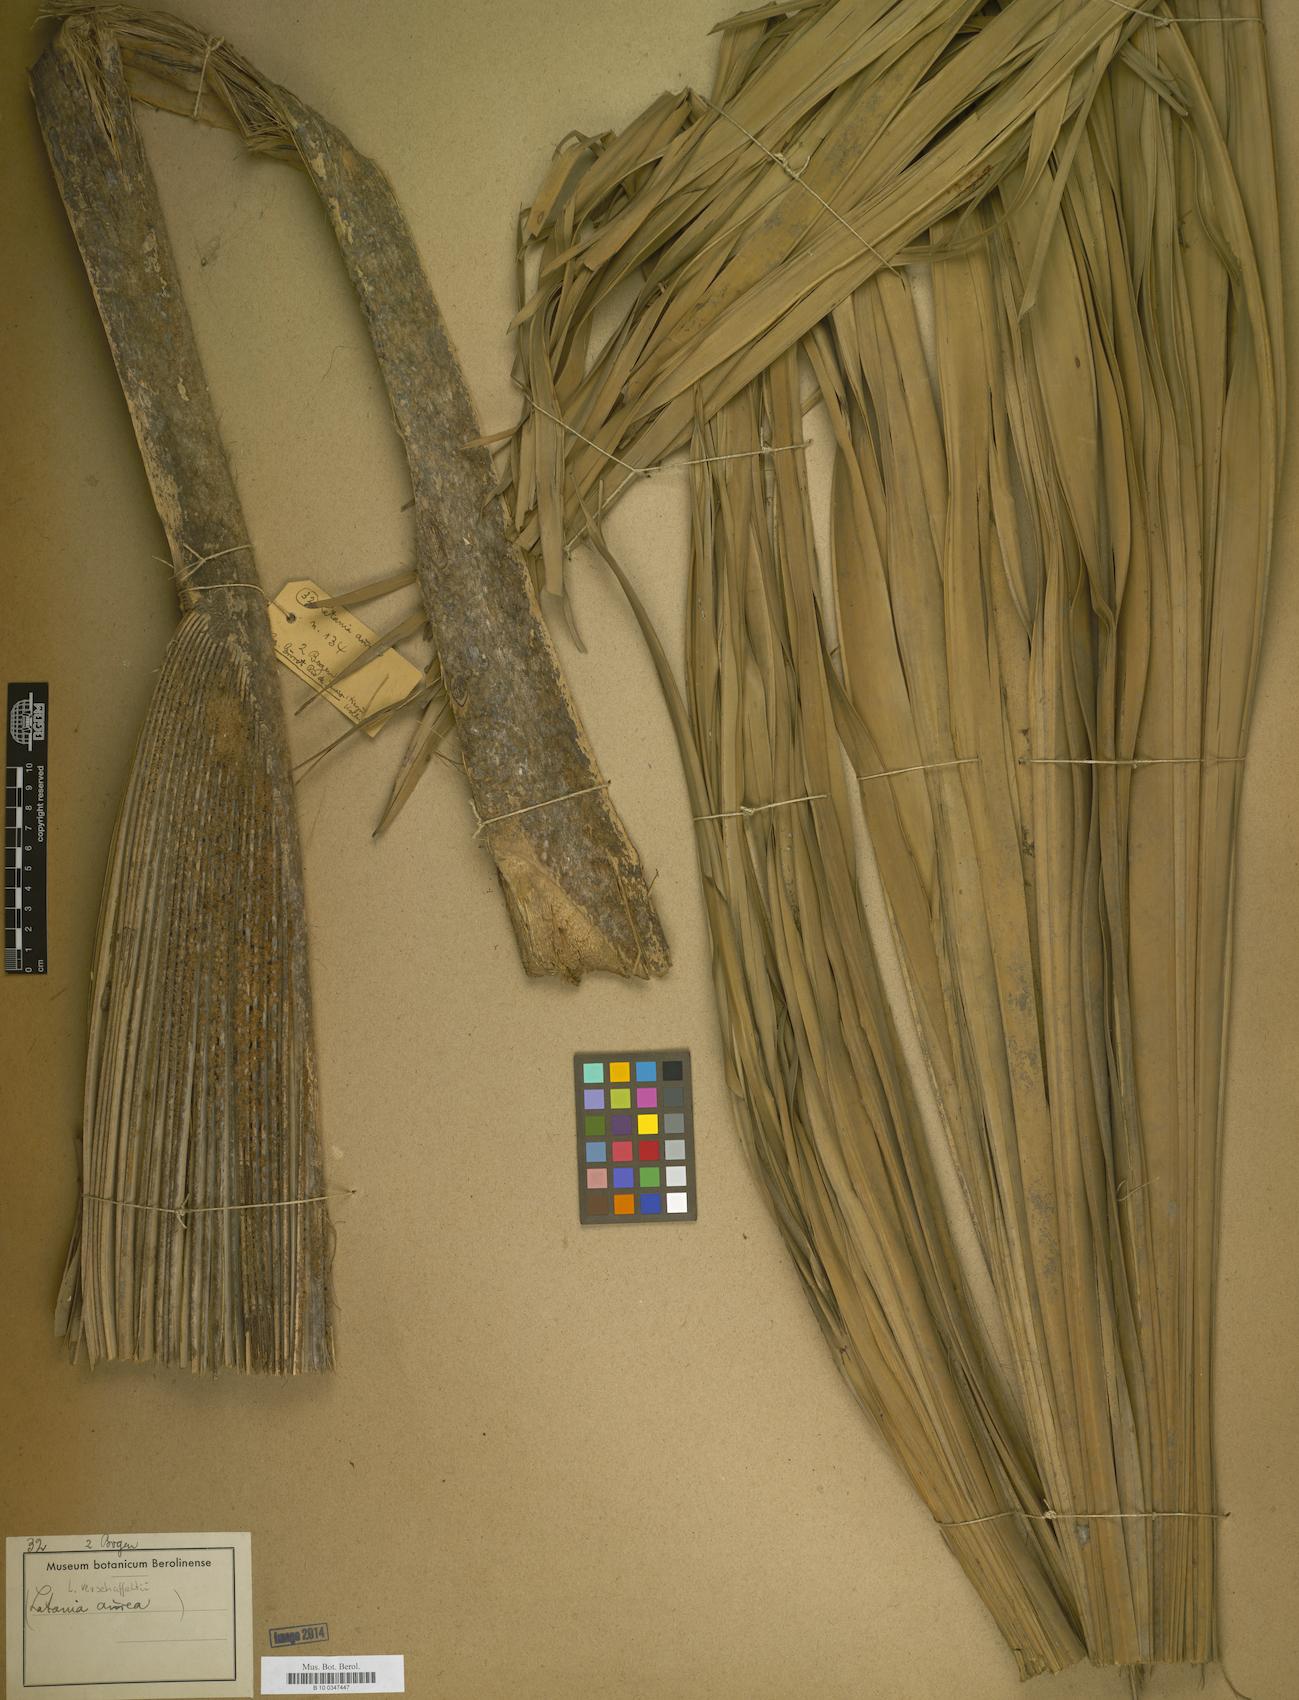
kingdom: Plantae
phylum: Tracheophyta
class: Liliopsida
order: Arecales
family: Arecaceae
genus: Latania
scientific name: Latania verschaffeltii
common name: Yellow latan
